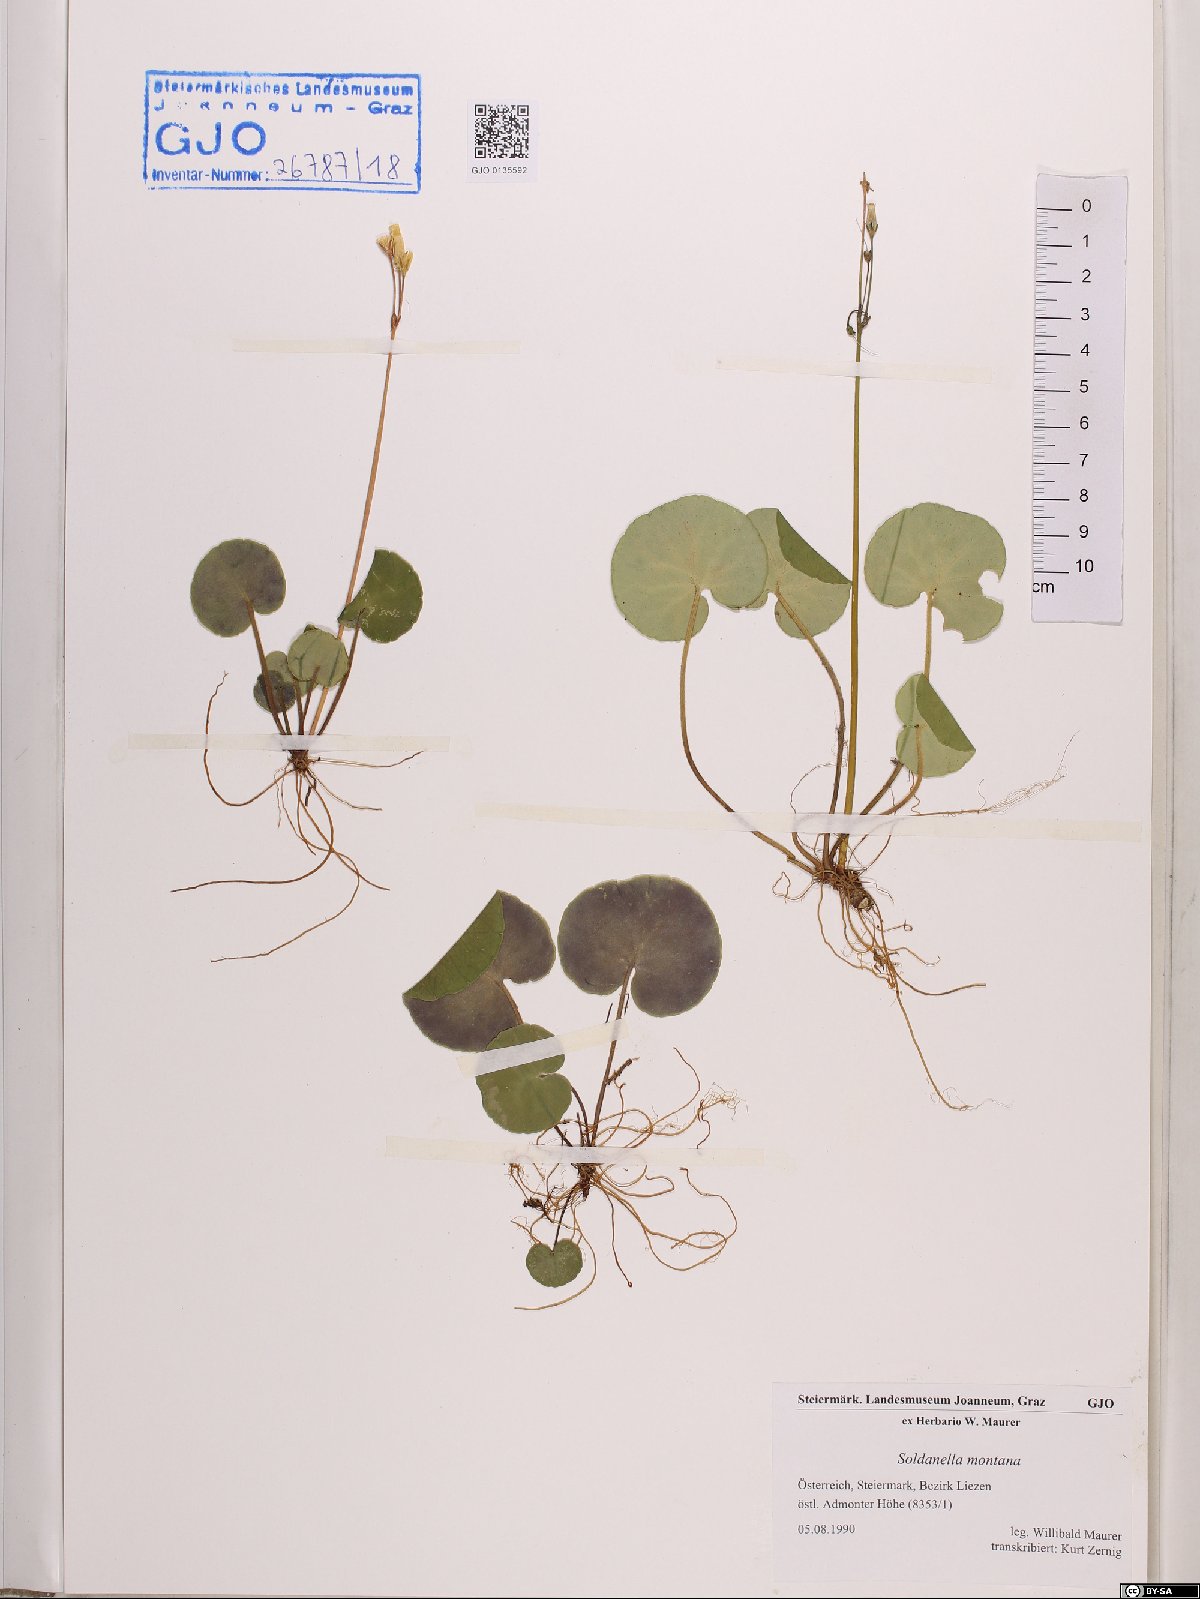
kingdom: Plantae
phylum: Tracheophyta
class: Magnoliopsida
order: Ericales
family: Primulaceae
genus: Soldanella
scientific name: Soldanella montana
